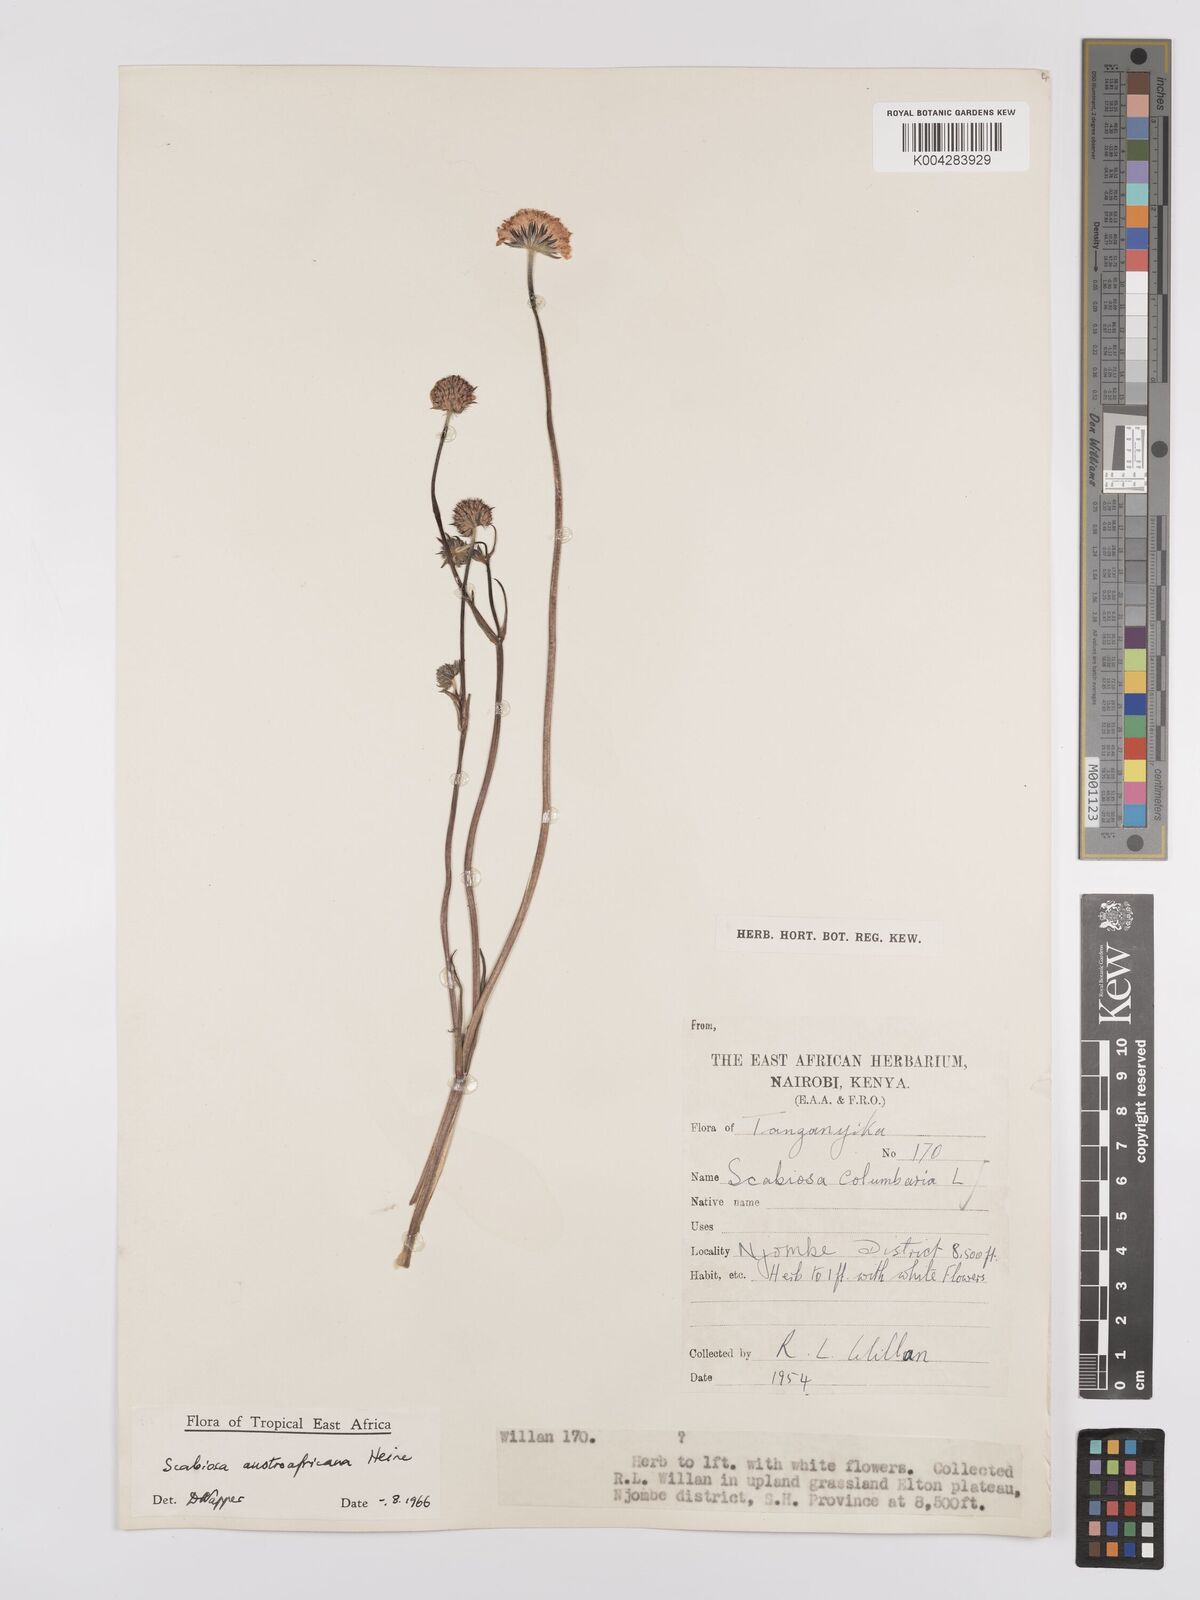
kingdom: Plantae
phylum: Tracheophyta
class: Magnoliopsida
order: Dipsacales
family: Caprifoliaceae
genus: Scabiosa
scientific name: Scabiosa austroafricana
